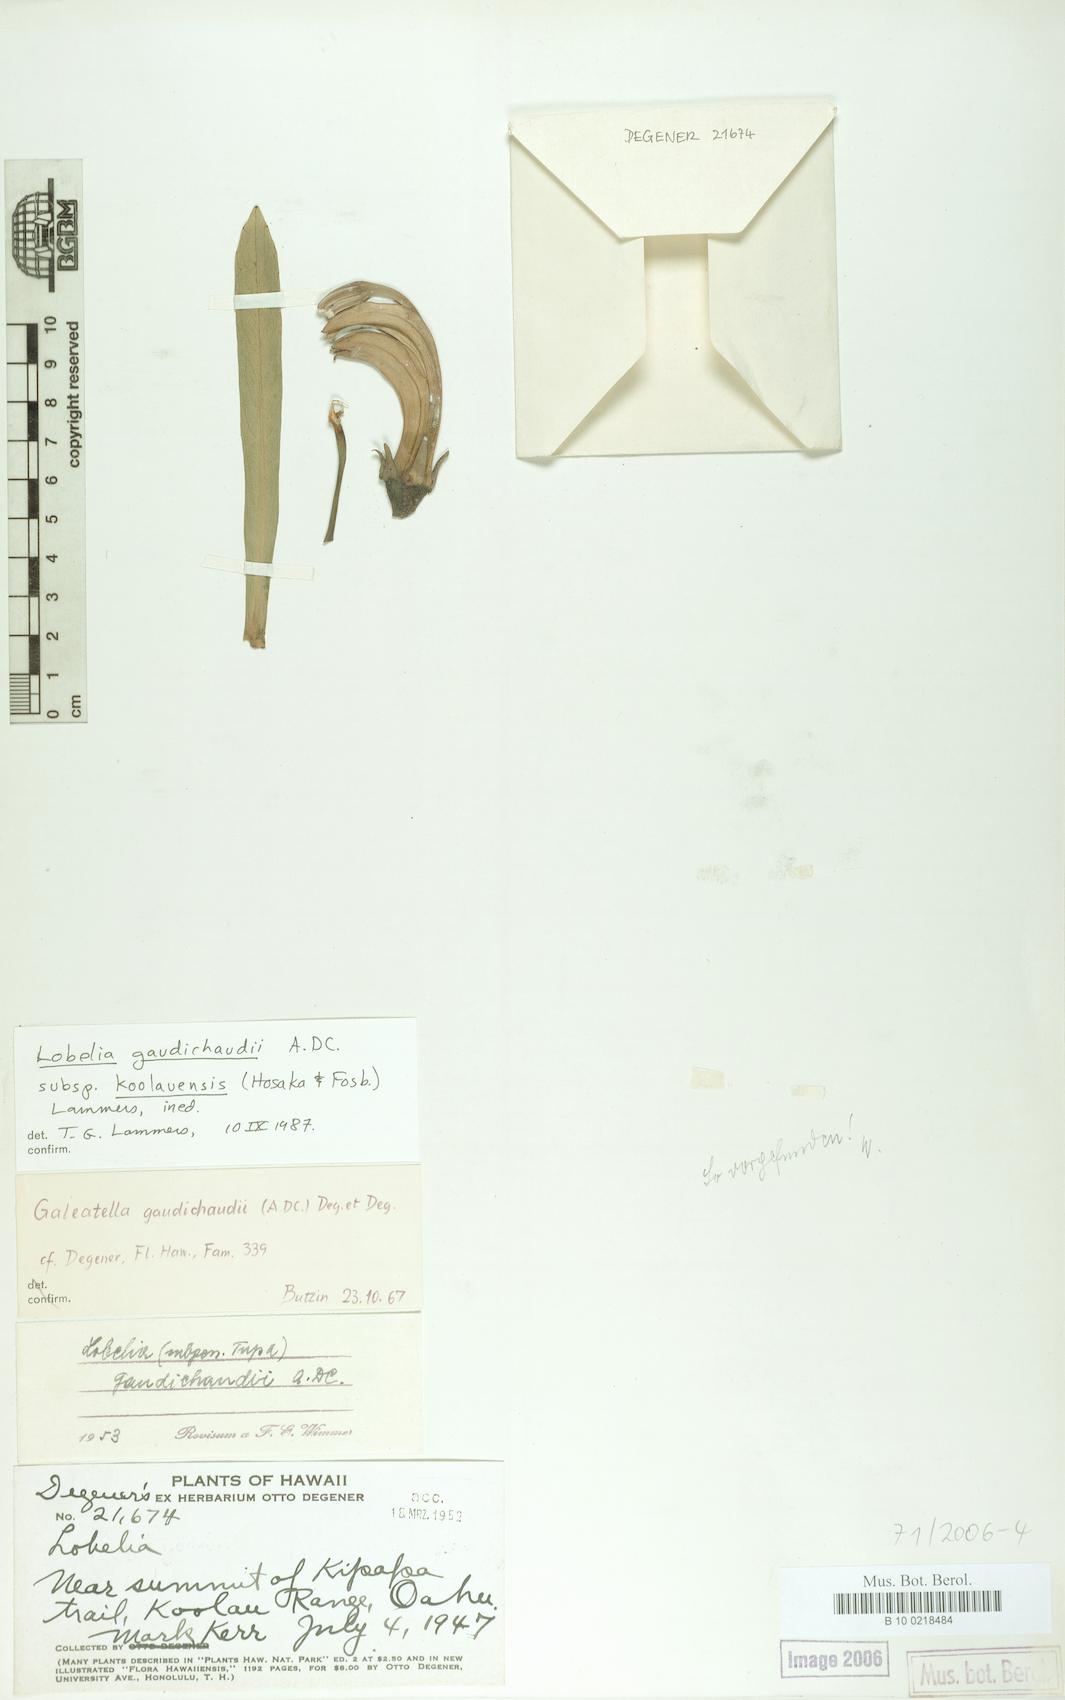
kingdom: Plantae
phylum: Tracheophyta
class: Magnoliopsida
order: Asterales
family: Campanulaceae
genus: Lobelia
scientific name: Lobelia koolauensis
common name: Koolau range lobelia
